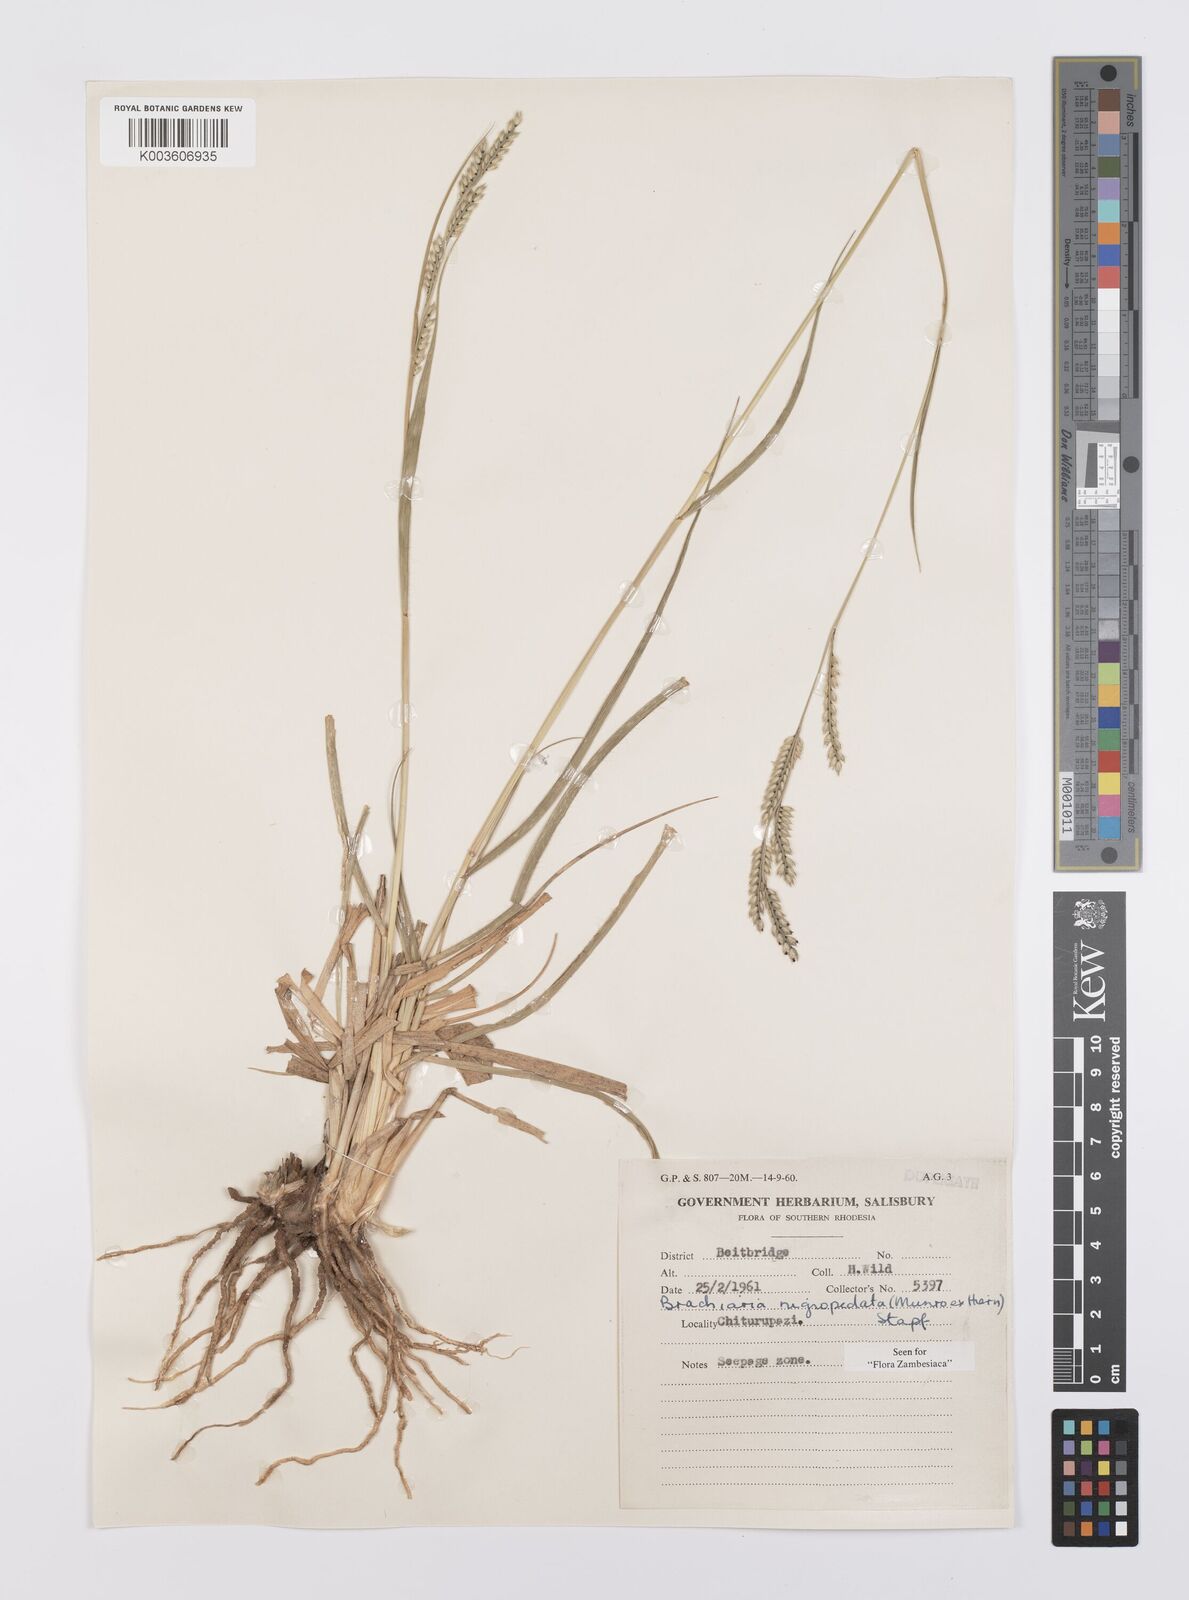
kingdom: Plantae
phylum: Tracheophyta
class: Liliopsida
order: Poales
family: Poaceae
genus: Urochloa
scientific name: Urochloa nigropedata
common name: Spotted signal grass
